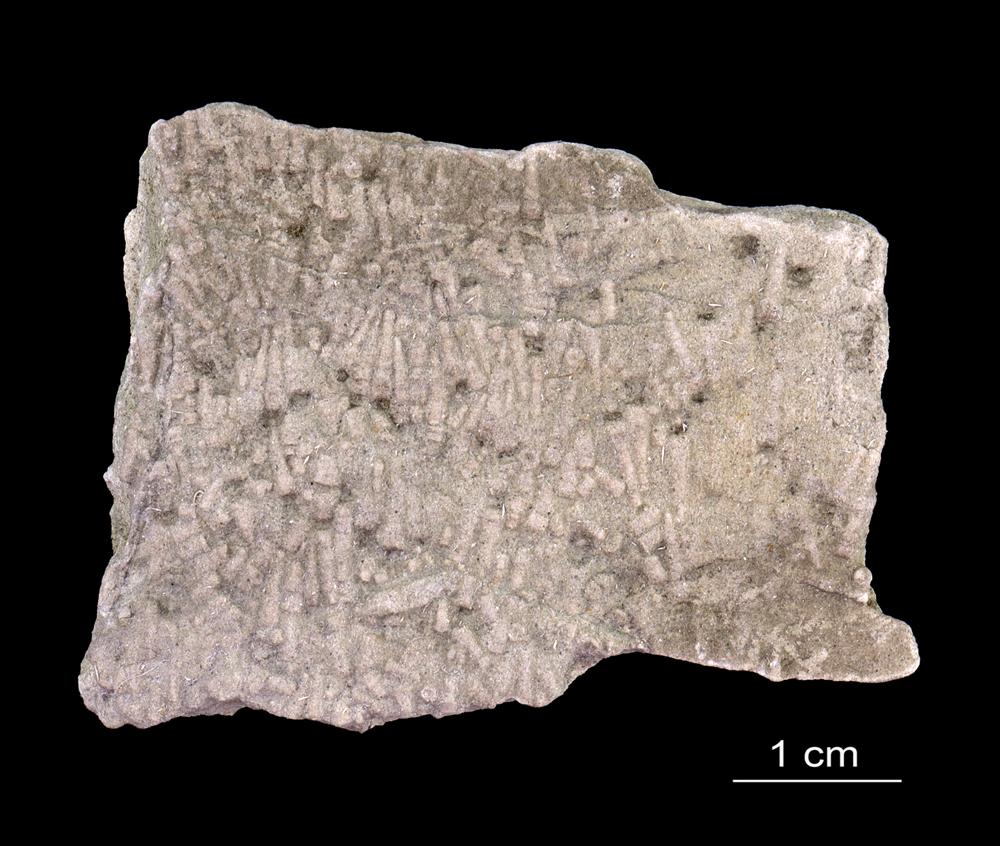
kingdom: Animalia
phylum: Annelida
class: Polychaeta
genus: Volborthella
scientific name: Volborthella tenuis
